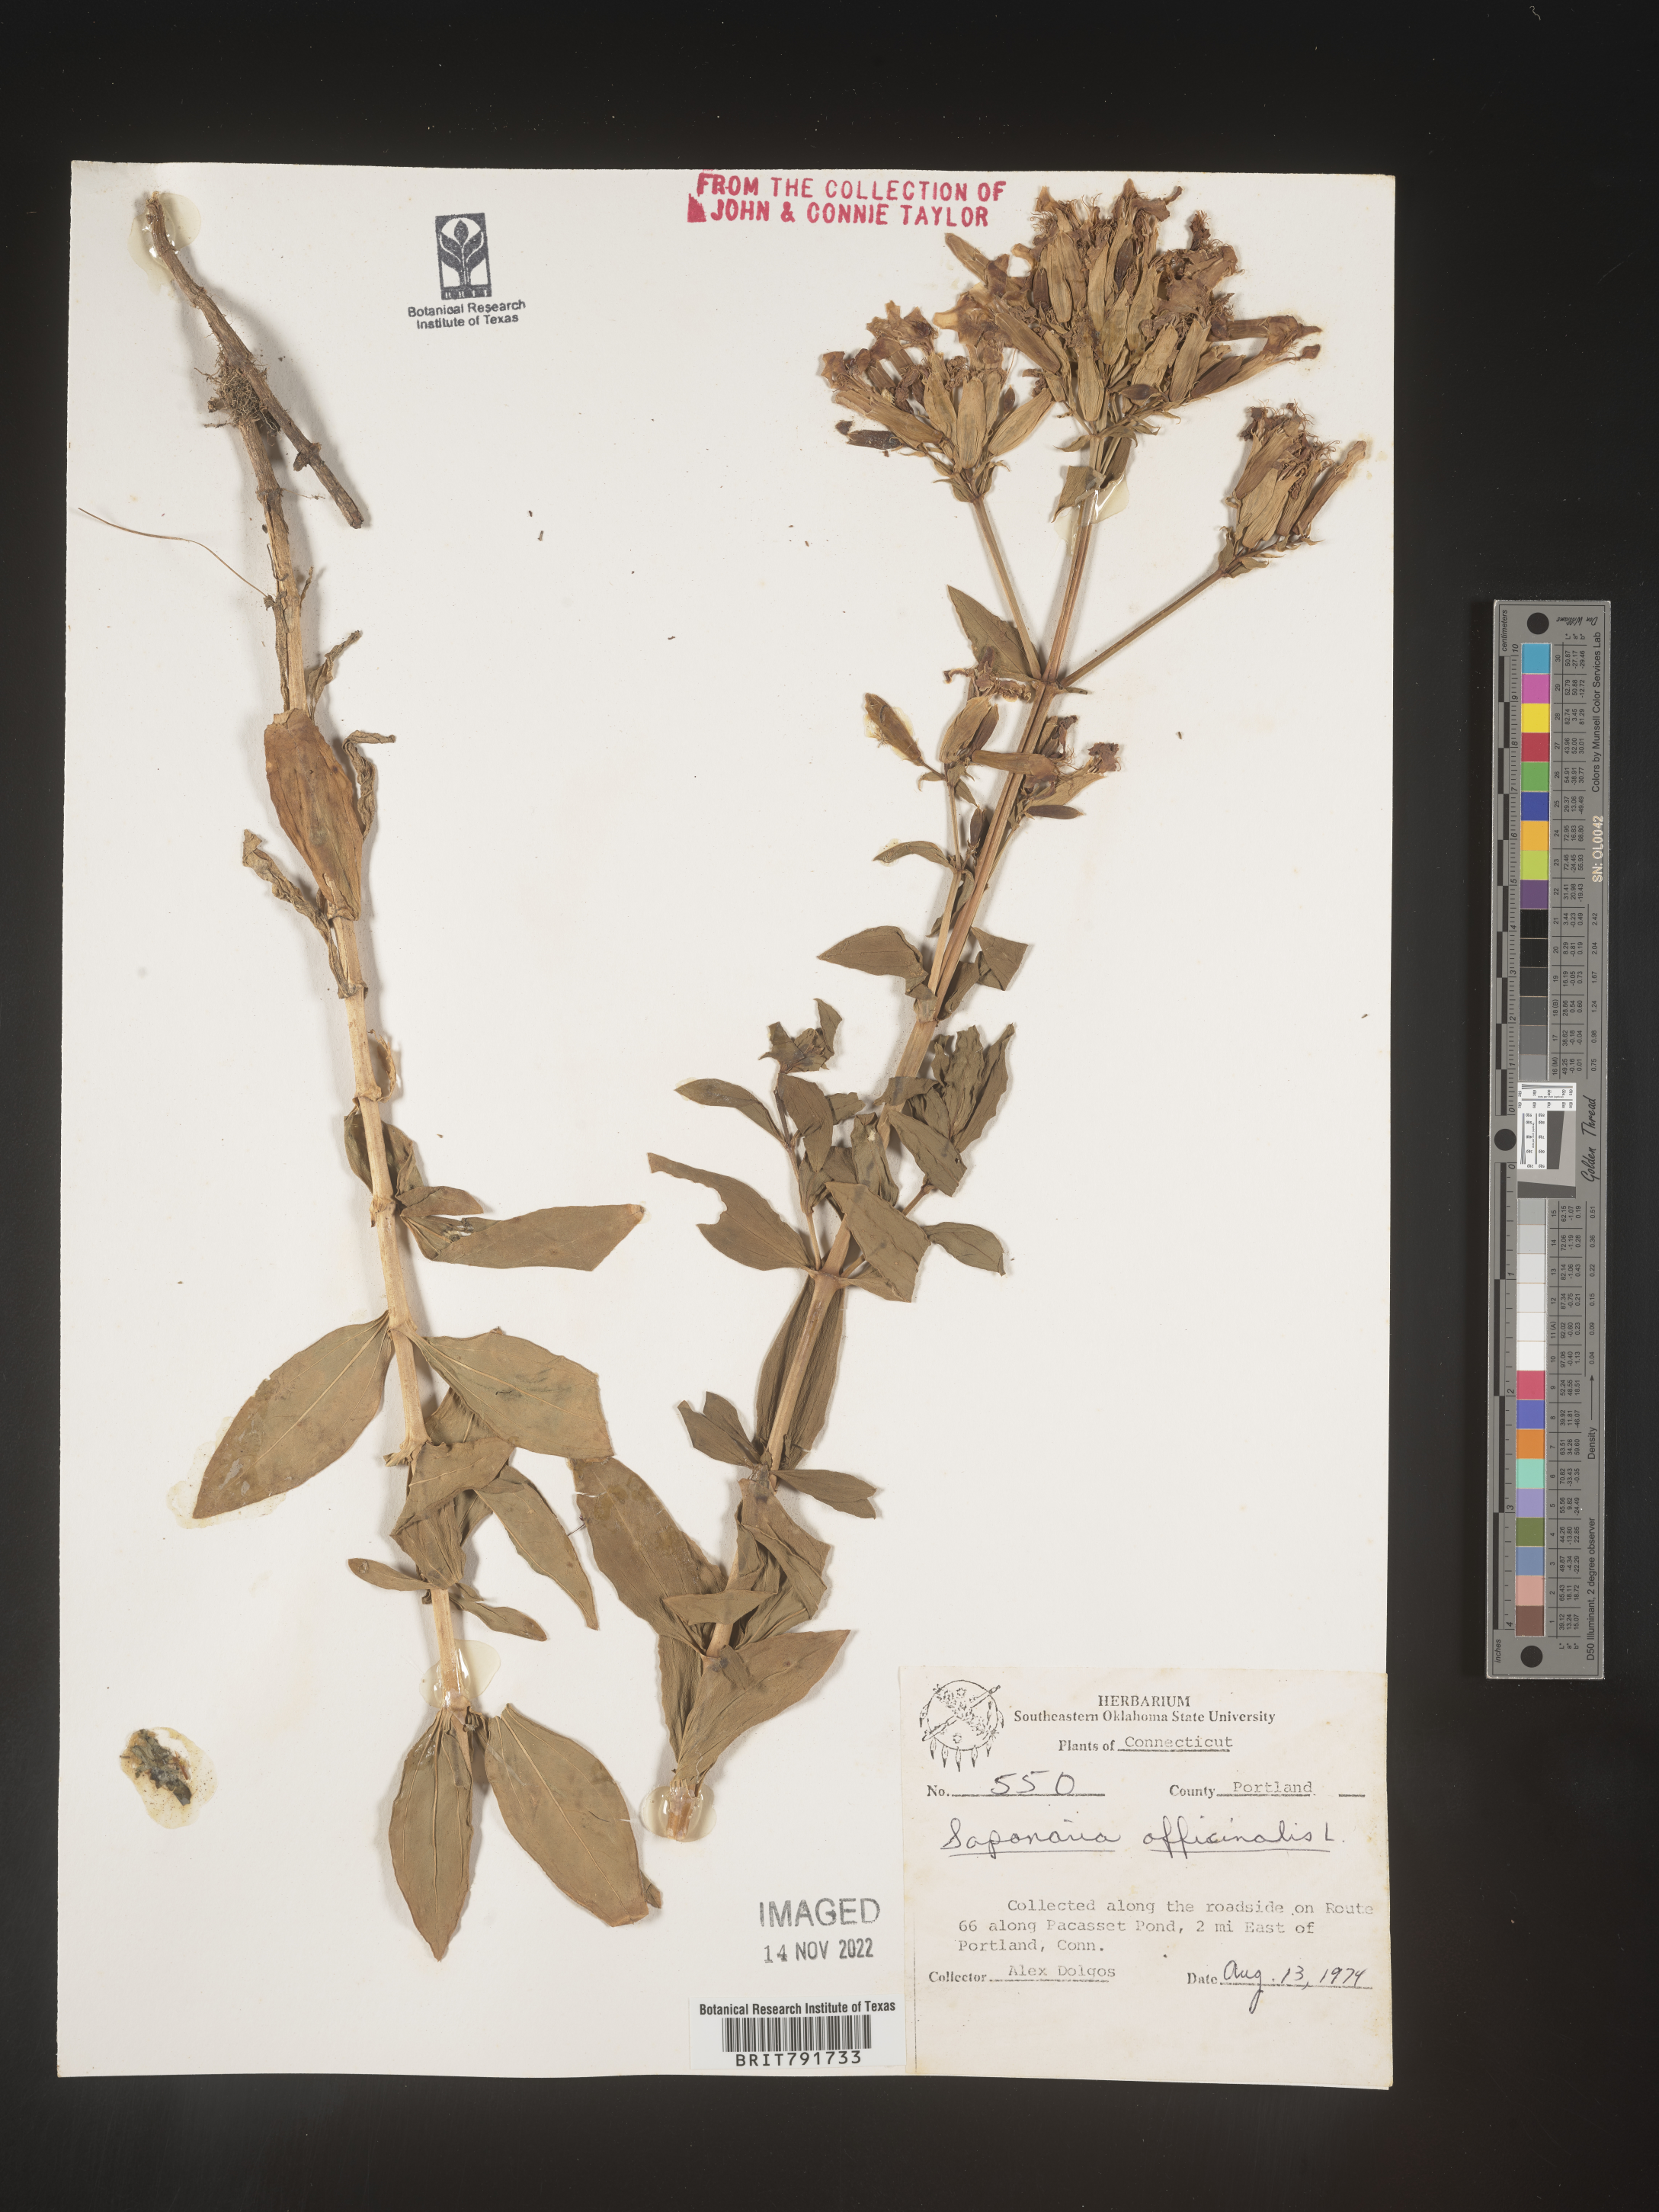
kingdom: Plantae
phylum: Tracheophyta
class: Magnoliopsida
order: Caryophyllales
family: Caryophyllaceae
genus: Saponaria
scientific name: Saponaria officinalis
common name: Soapwort
